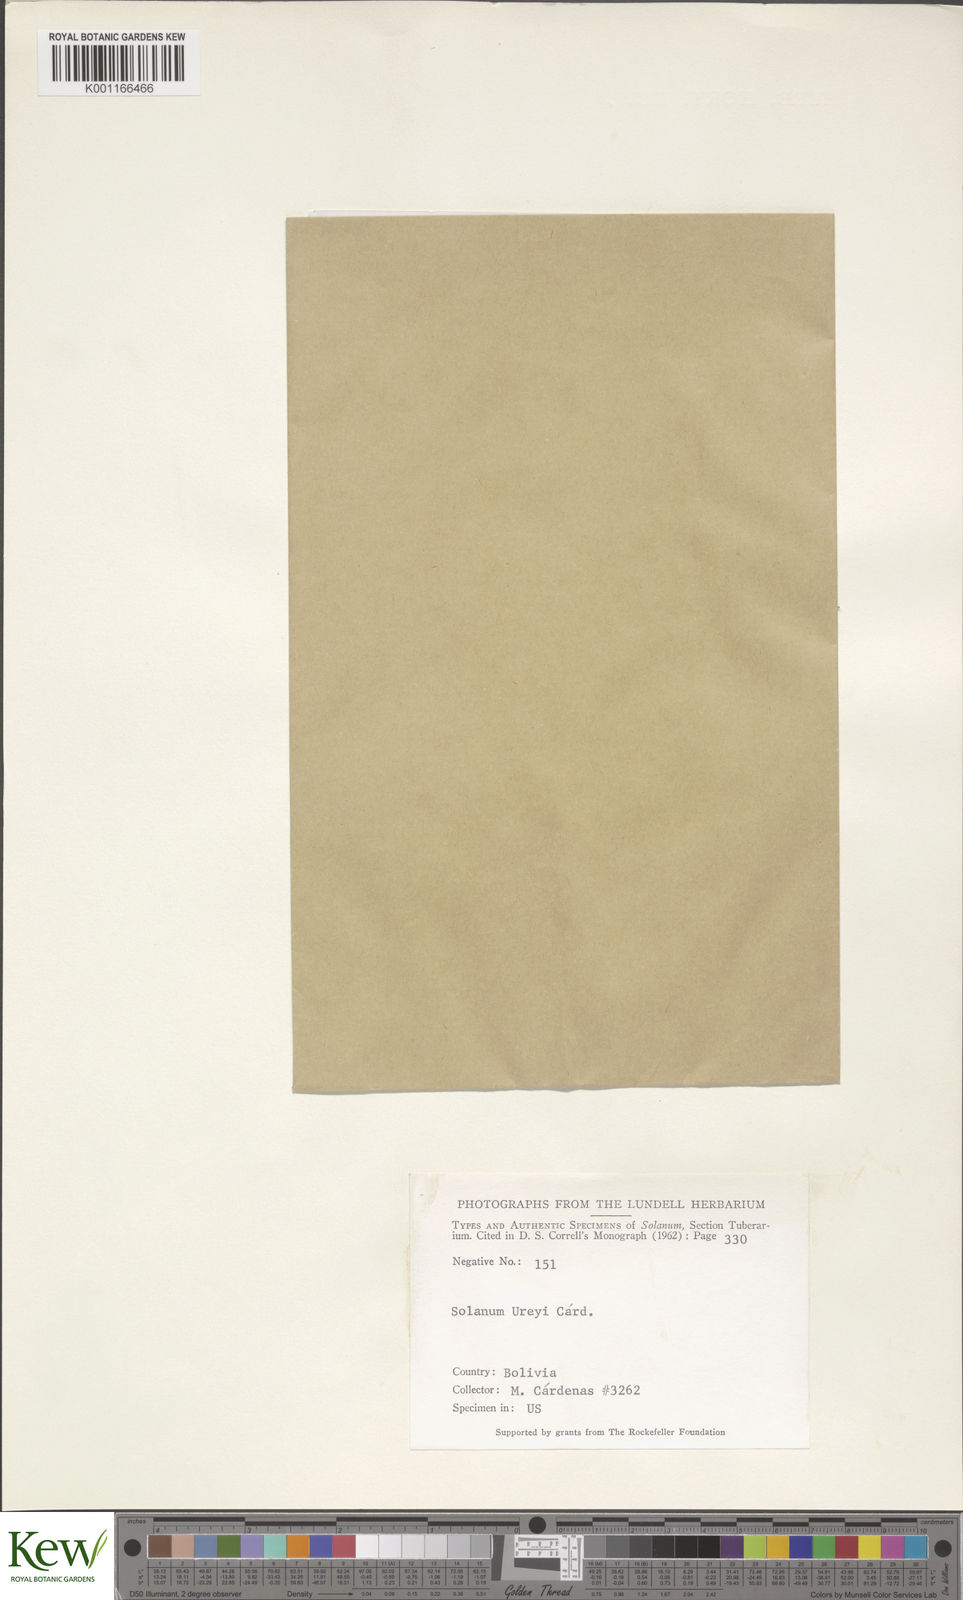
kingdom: Plantae
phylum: Tracheophyta
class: Magnoliopsida
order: Solanales
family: Solanaceae
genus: Solanum
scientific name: Solanum
